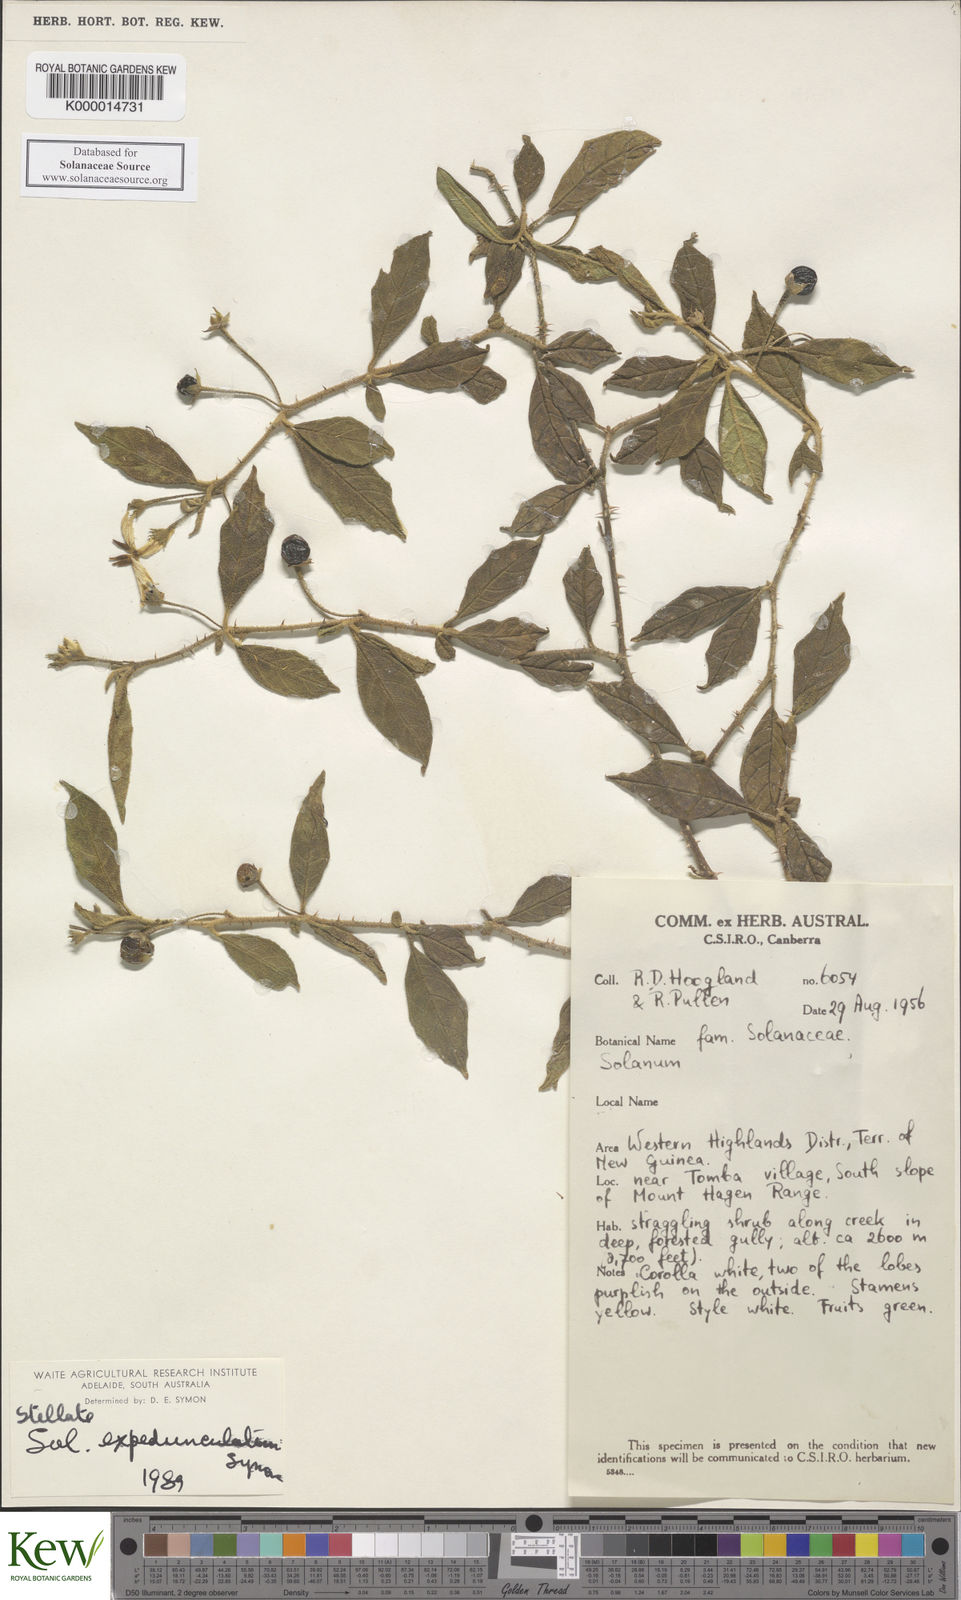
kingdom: Plantae
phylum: Tracheophyta
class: Magnoliopsida
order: Solanales
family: Solanaceae
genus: Solanum
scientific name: Solanum expedunculatum
